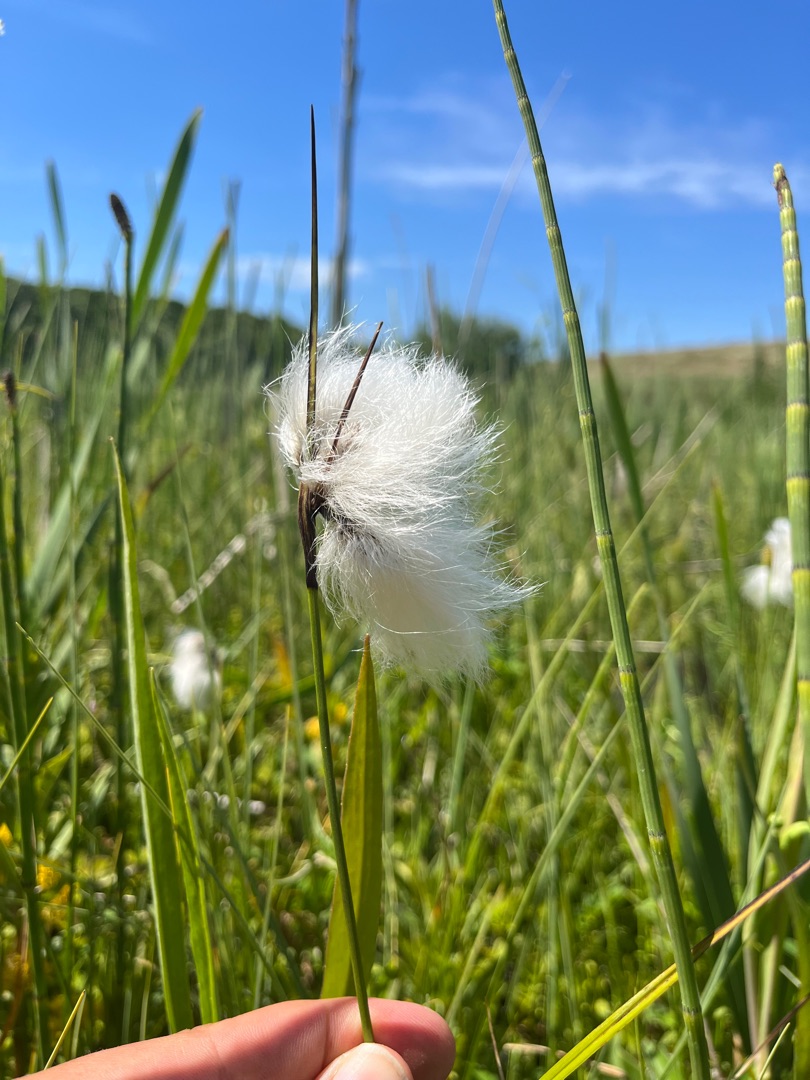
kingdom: Plantae
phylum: Tracheophyta
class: Liliopsida
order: Poales
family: Cyperaceae
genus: Eriophorum
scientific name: Eriophorum angustifolium
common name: Smalbladet kæruld
